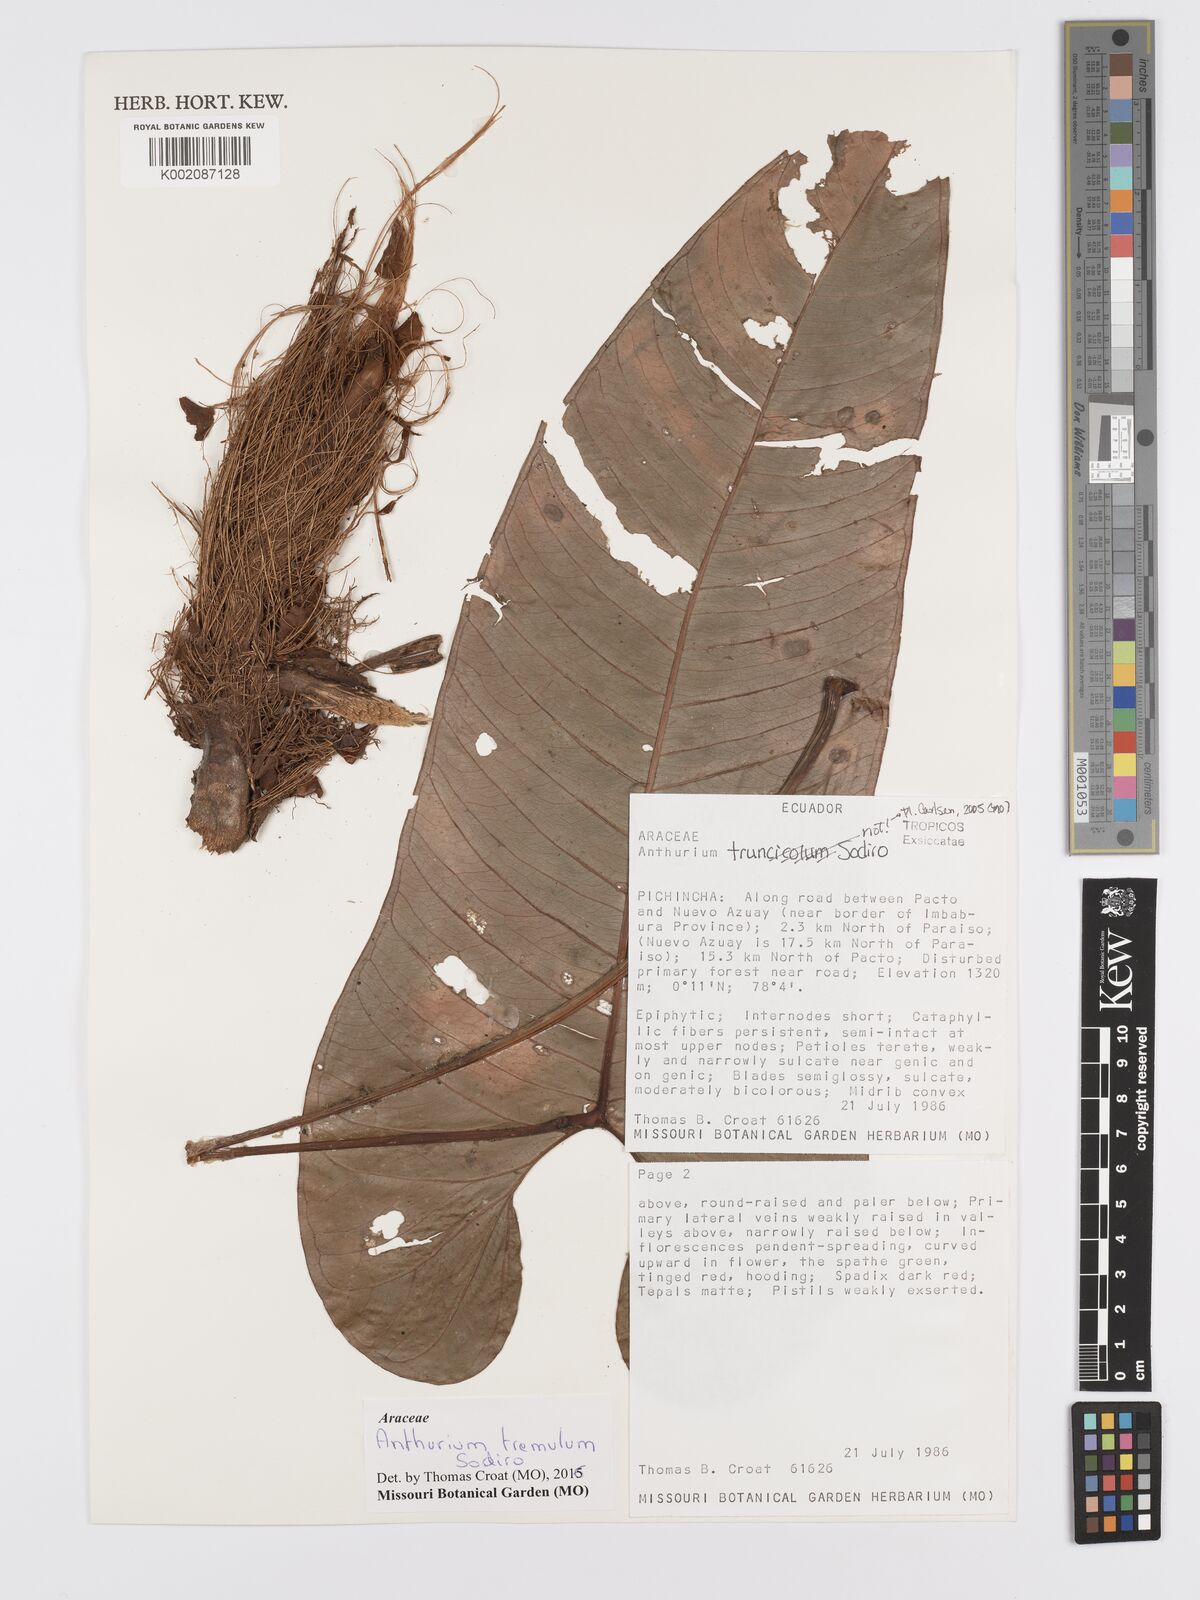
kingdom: Plantae
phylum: Tracheophyta
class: Liliopsida
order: Alismatales
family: Araceae
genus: Anthurium
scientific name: Anthurium tremulum
